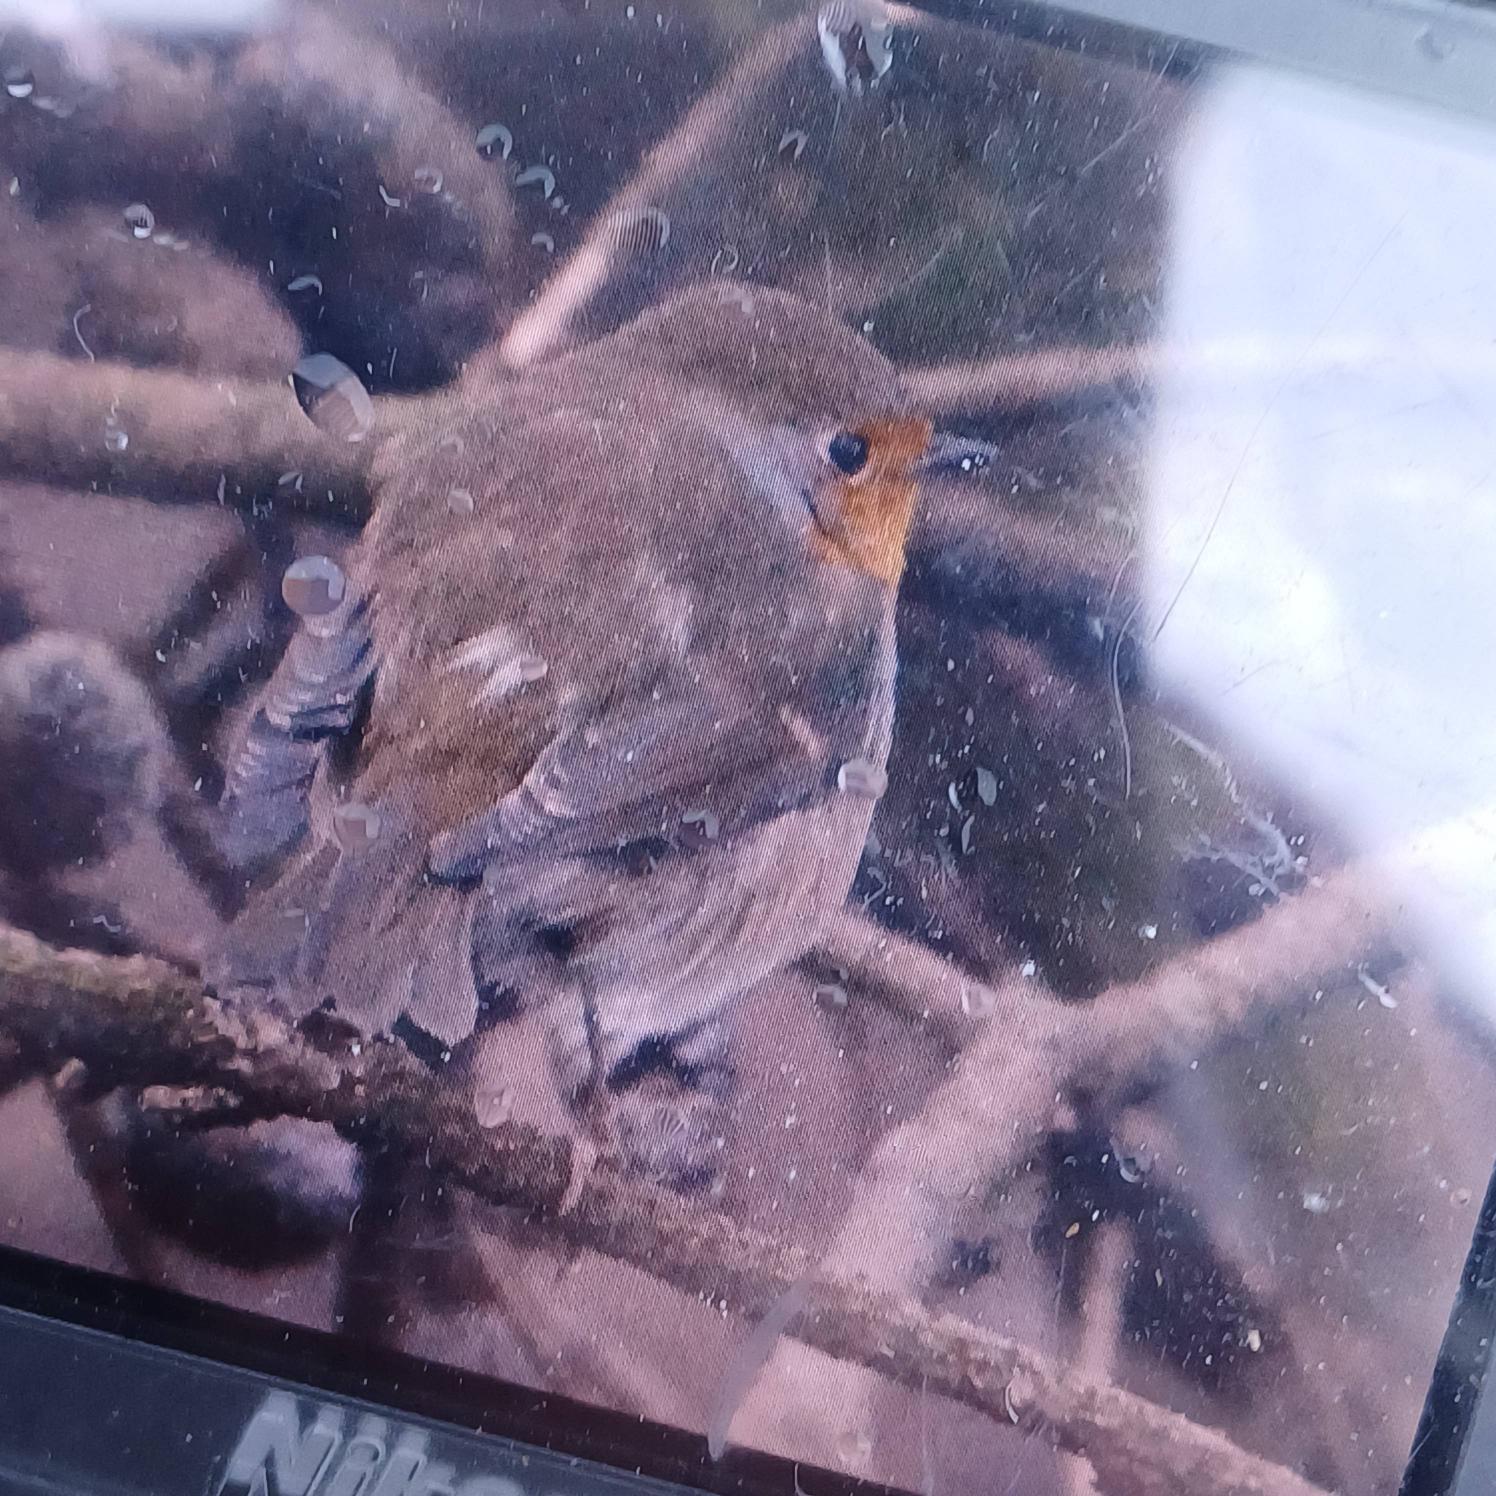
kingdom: Animalia
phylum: Chordata
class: Aves
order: Passeriformes
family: Muscicapidae
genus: Erithacus
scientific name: Erithacus rubecula
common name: Rødhals/rødkælk
